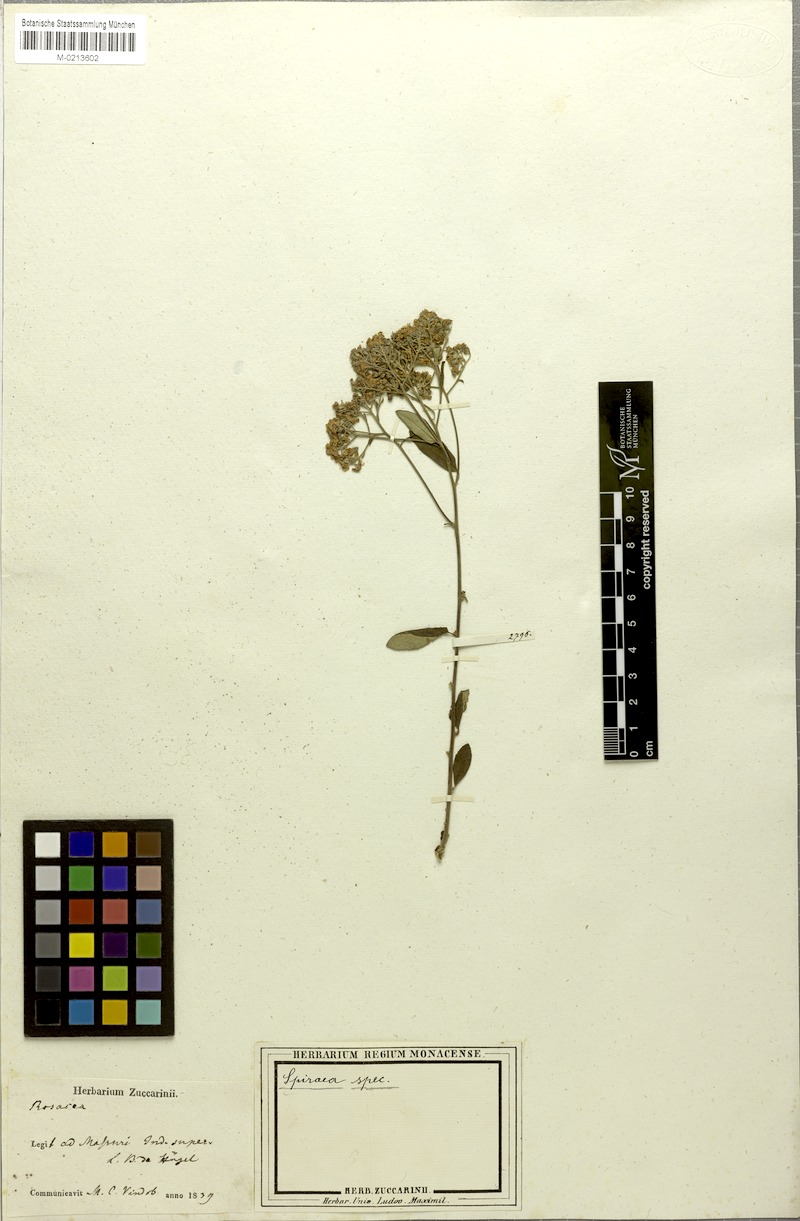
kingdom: Plantae
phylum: Tracheophyta
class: Magnoliopsida
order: Rosales
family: Rosaceae
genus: Spiraea
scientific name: Spiraea
